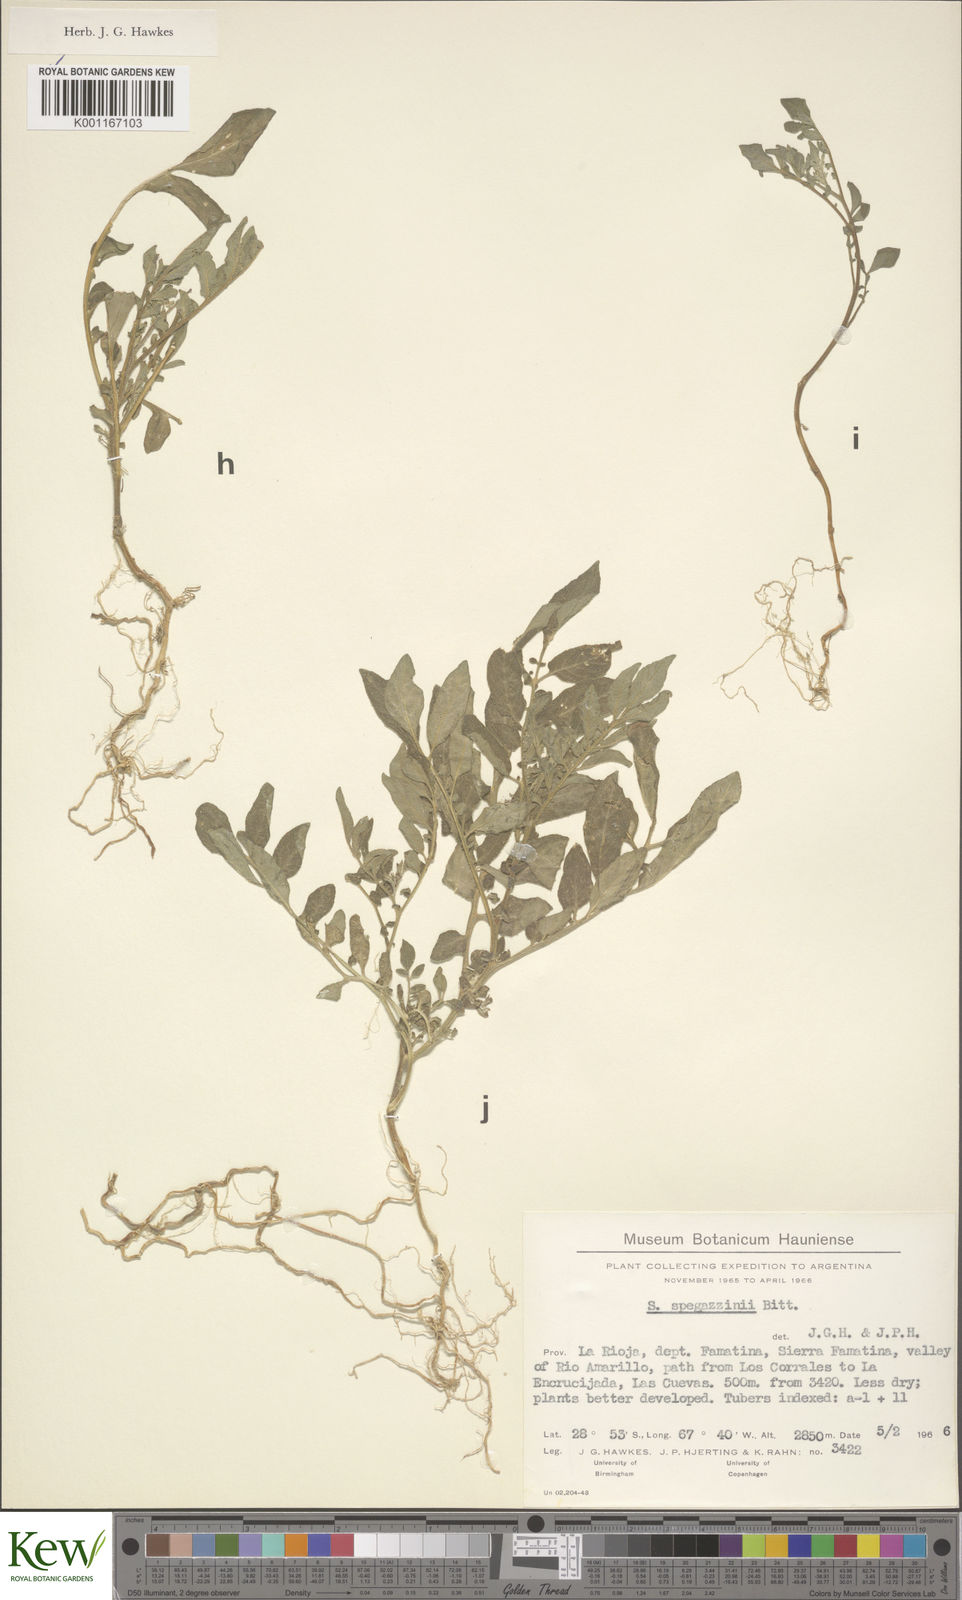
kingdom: Plantae
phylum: Tracheophyta
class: Magnoliopsida
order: Solanales
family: Solanaceae
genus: Solanum
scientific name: Solanum brevicaule
